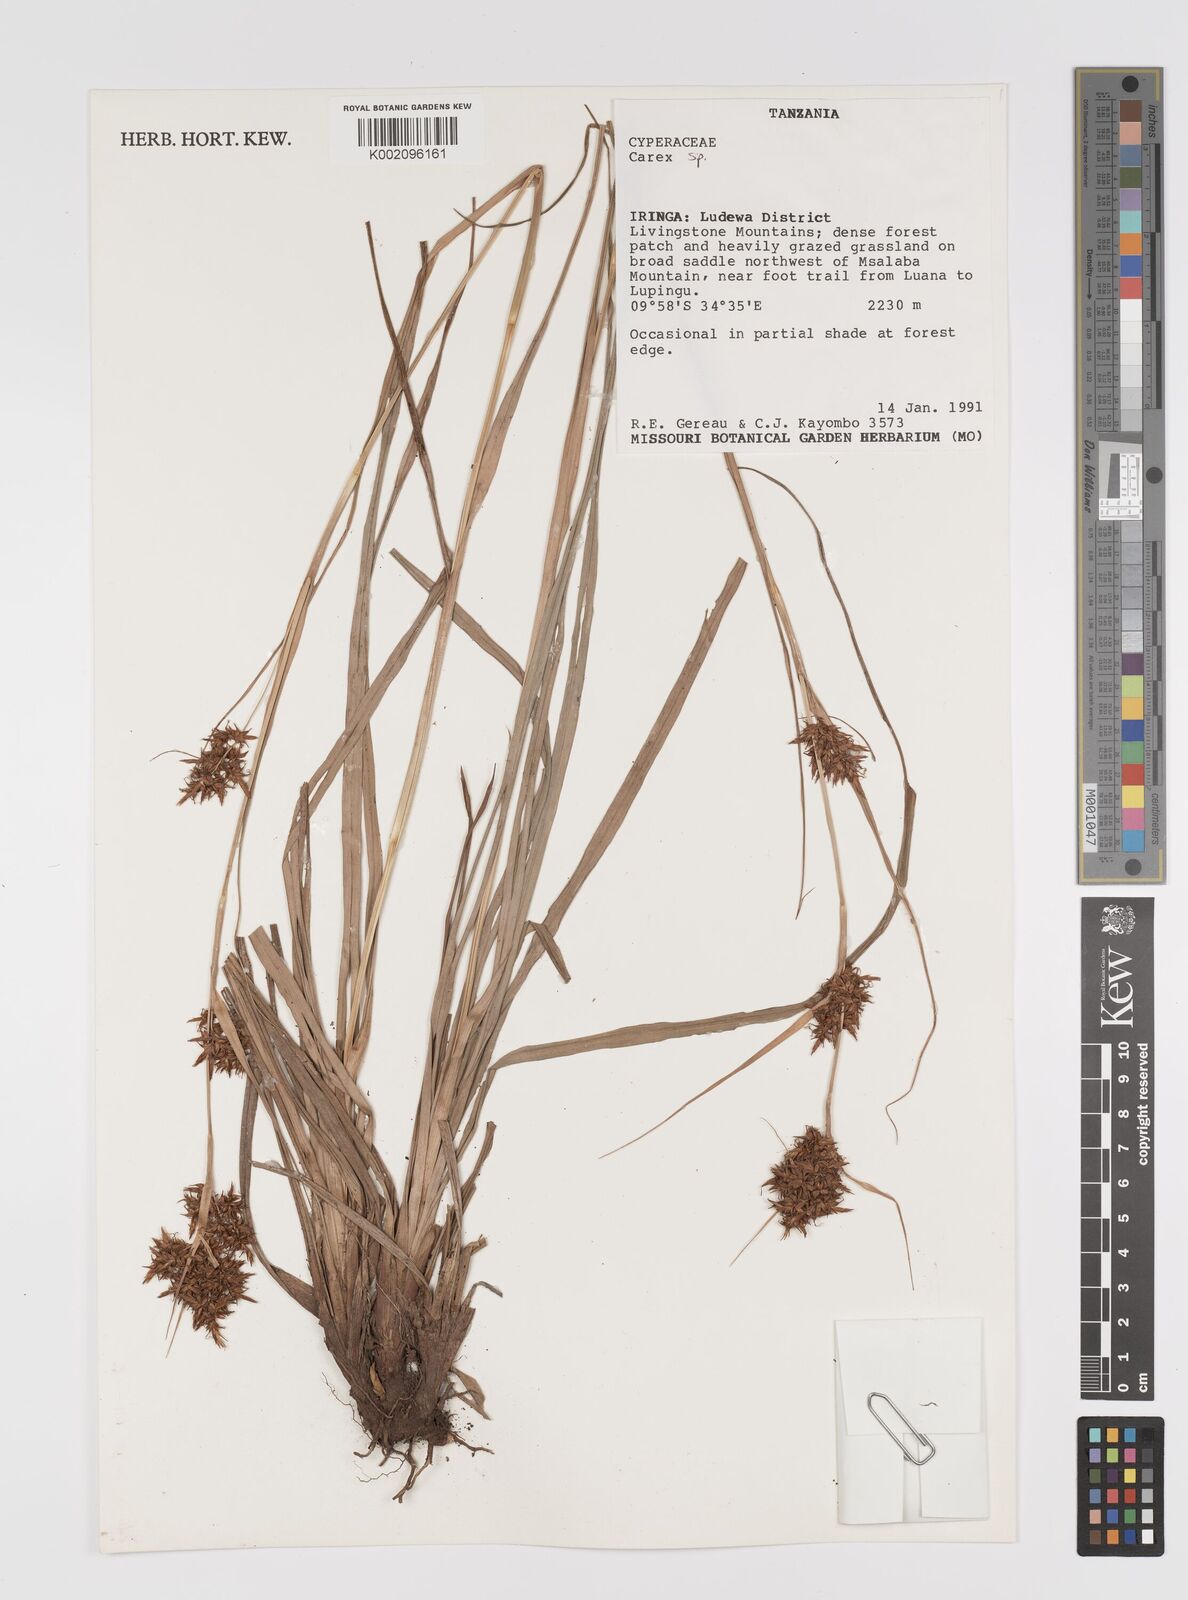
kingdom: Plantae
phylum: Tracheophyta
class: Liliopsida
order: Poales
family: Cyperaceae
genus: Carex
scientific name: Carex
